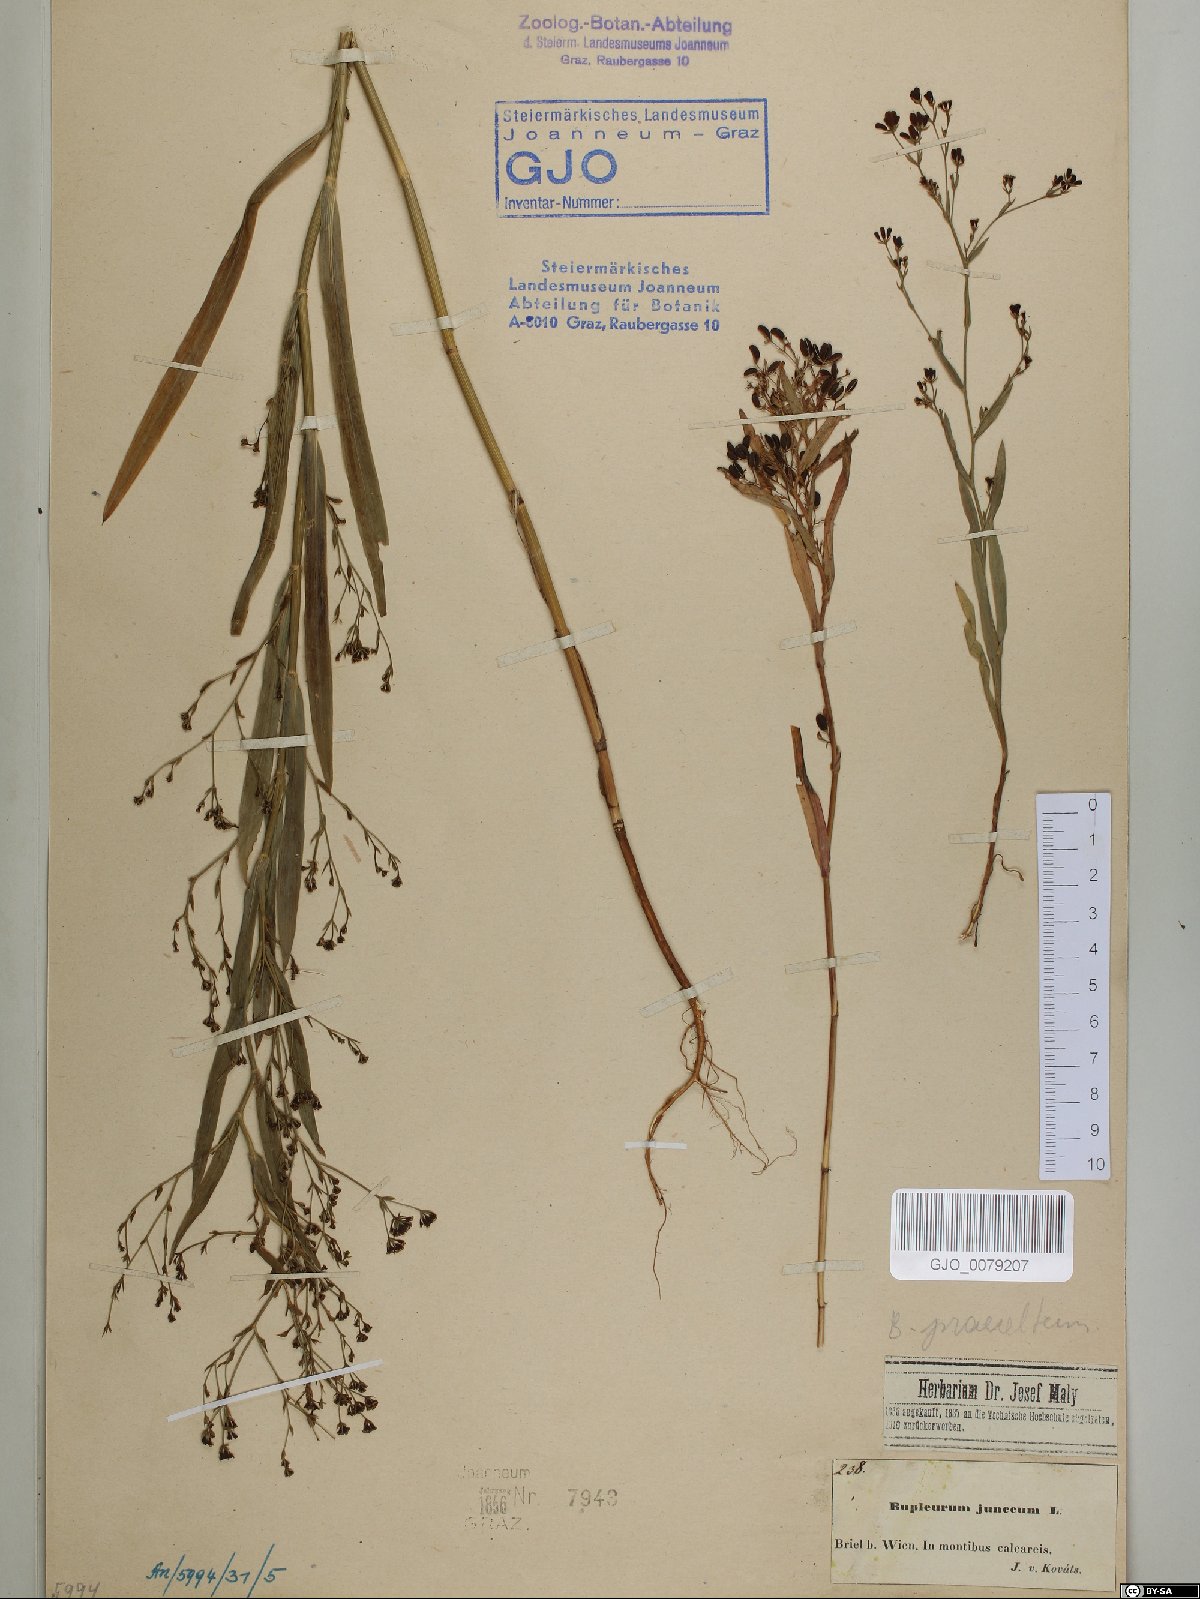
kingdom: Plantae
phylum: Tracheophyta
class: Magnoliopsida
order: Apiales
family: Apiaceae
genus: Bupleurum
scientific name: Bupleurum praealtum
